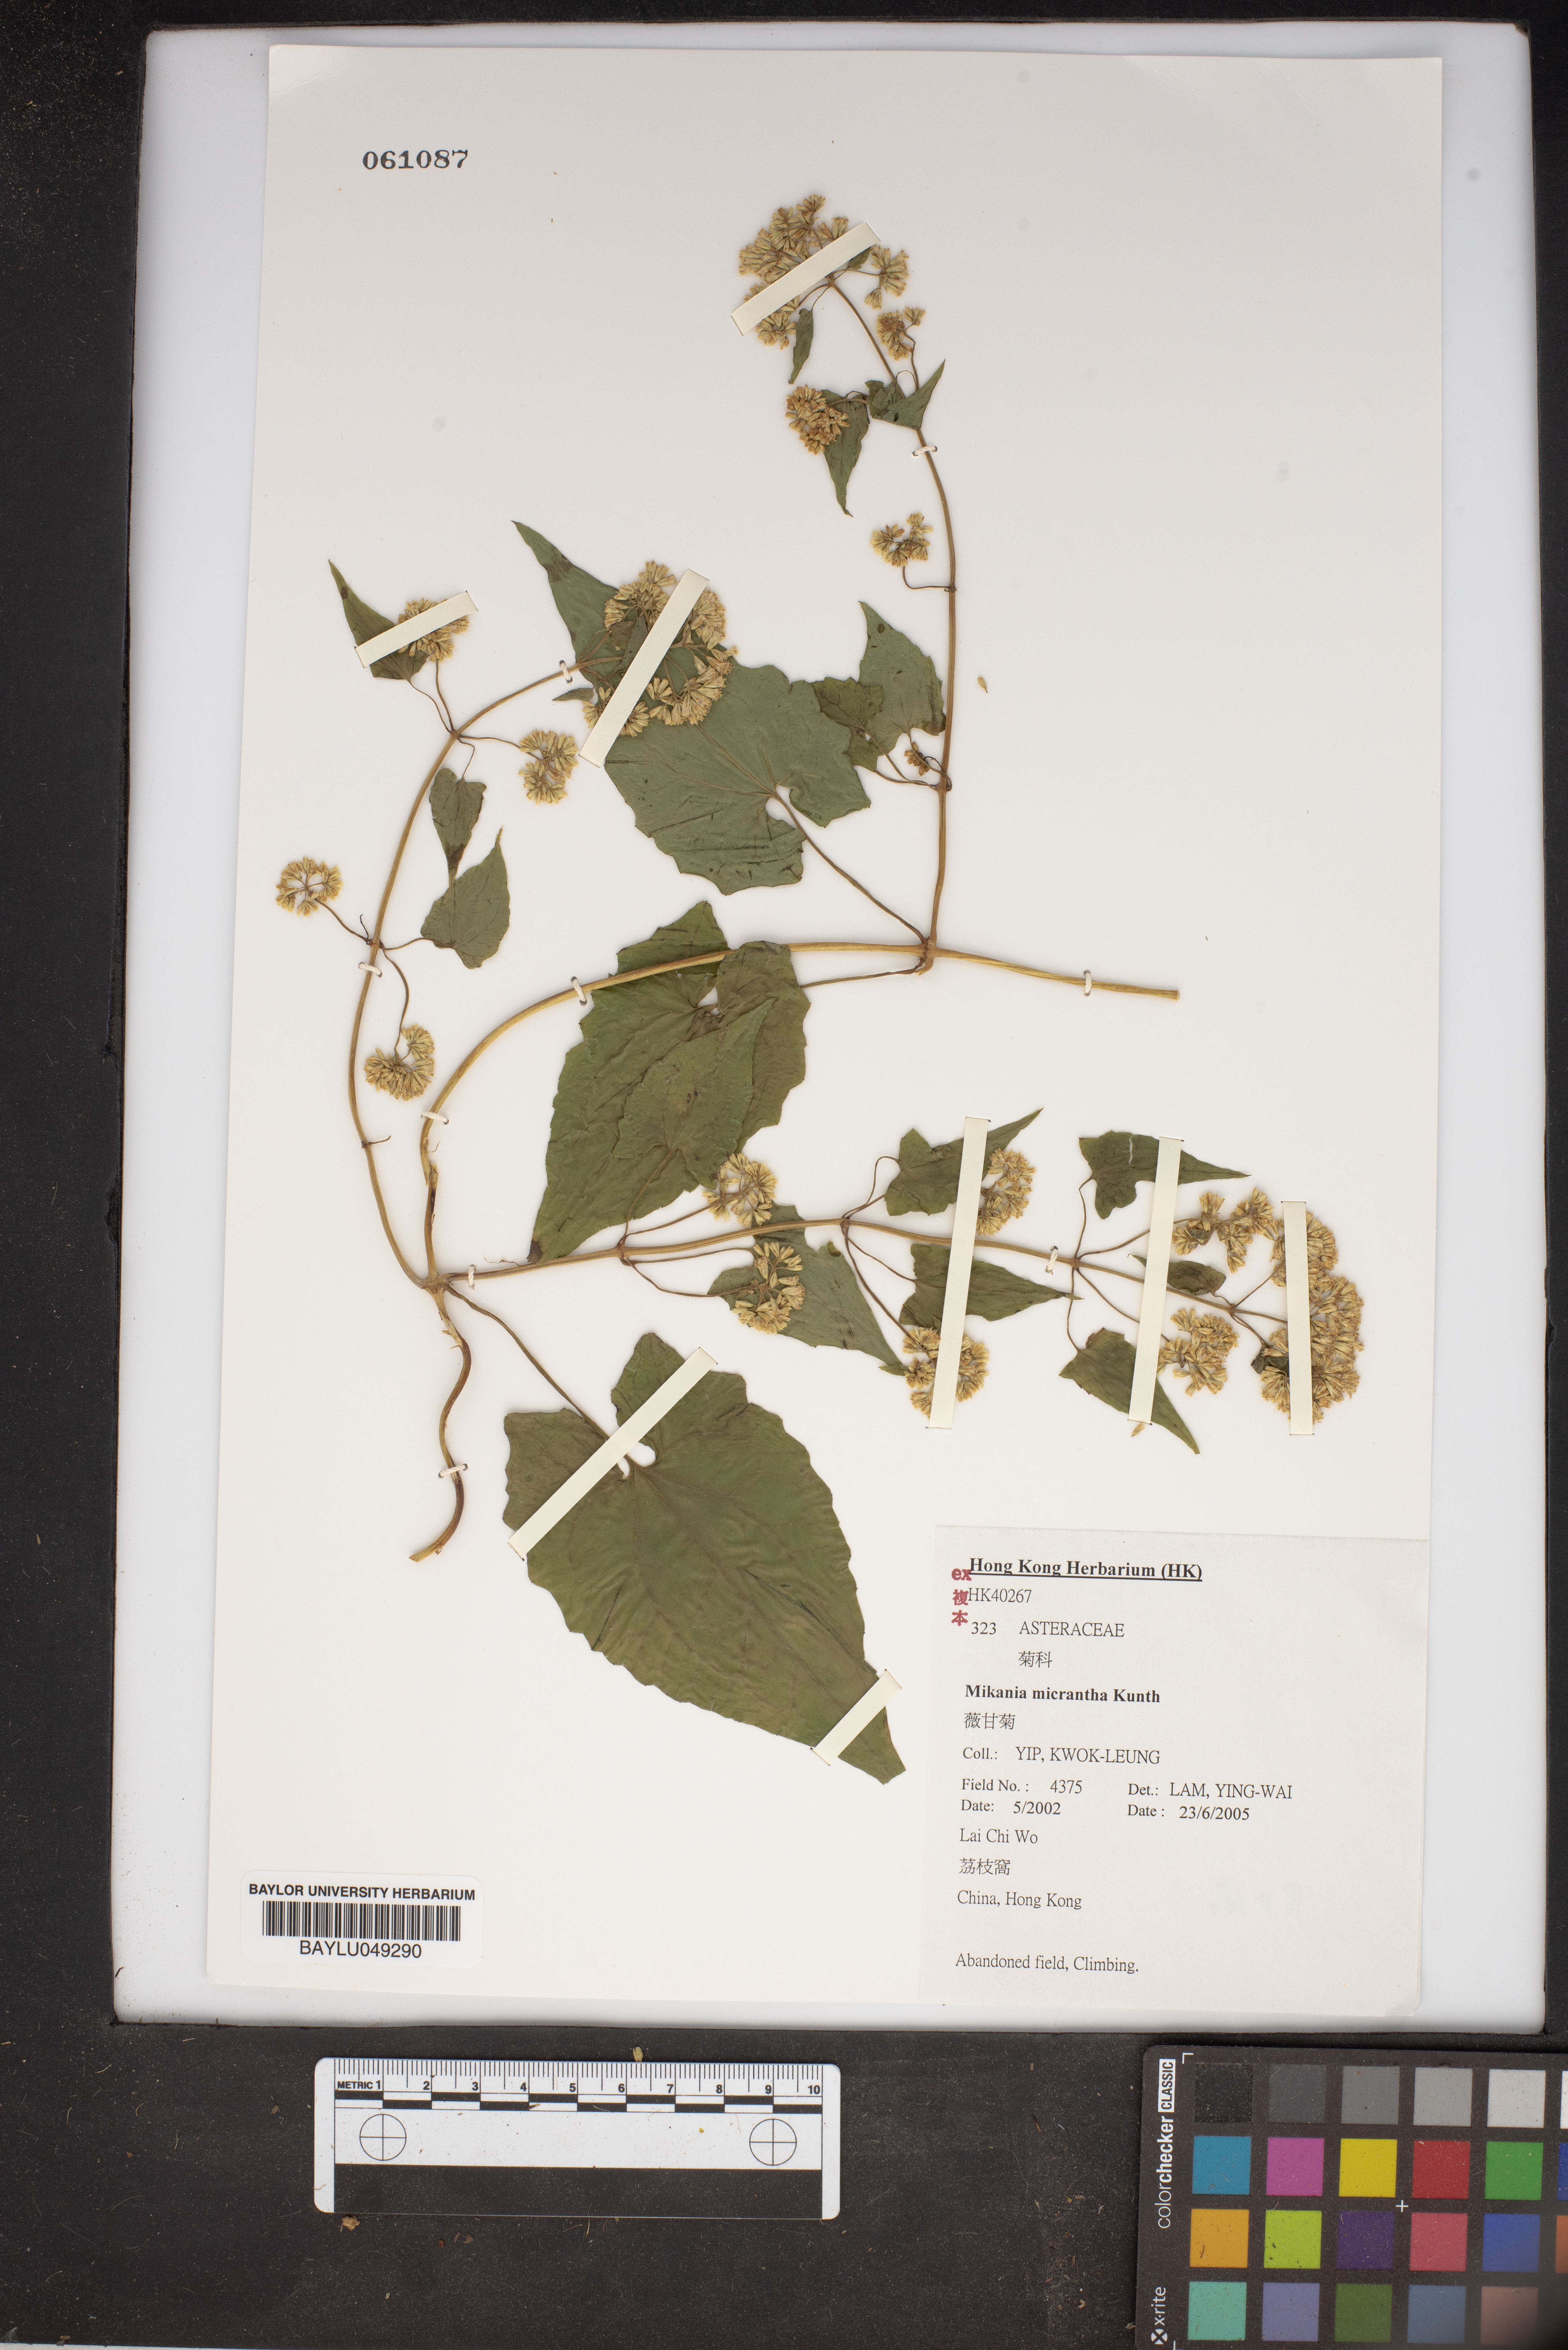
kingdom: Plantae
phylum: Tracheophyta
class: Magnoliopsida
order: Asterales
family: Asteraceae
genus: Mikania
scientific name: Mikania micrantha
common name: Mile-a-minute
